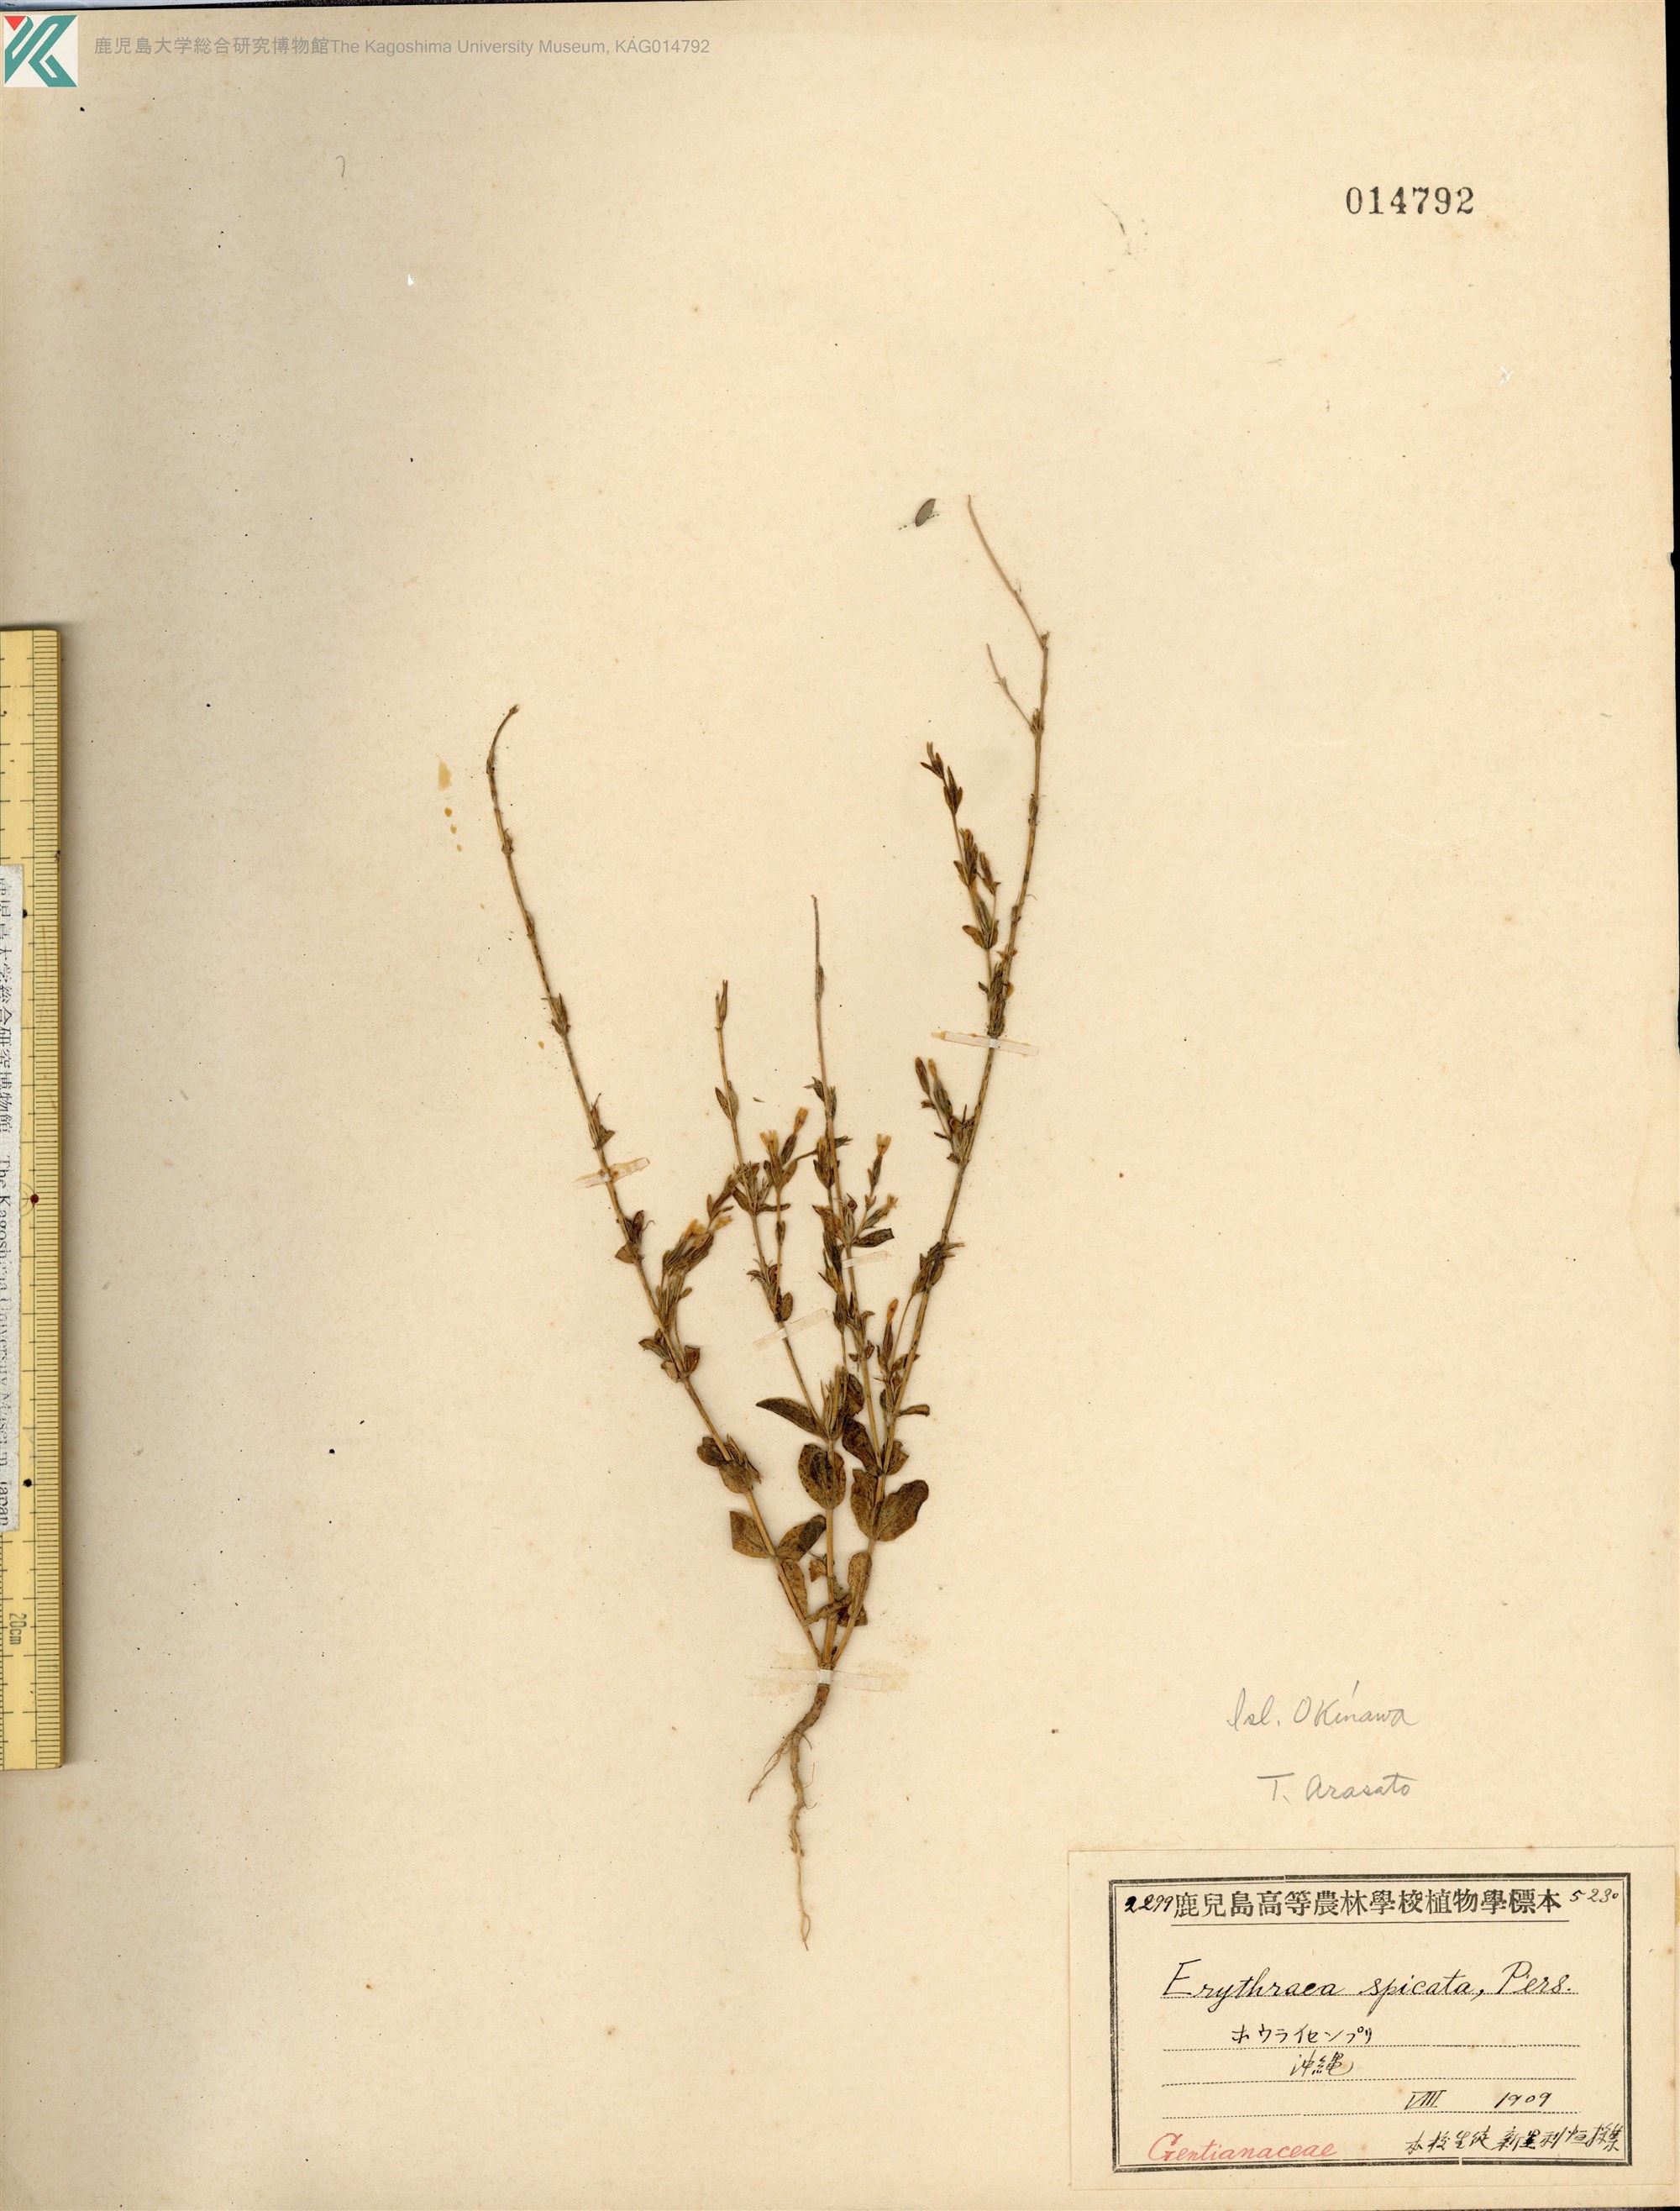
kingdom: Plantae
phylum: Tracheophyta
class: Magnoliopsida
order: Gentianales
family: Gentianaceae
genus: Schenkia
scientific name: Schenkia japonica
